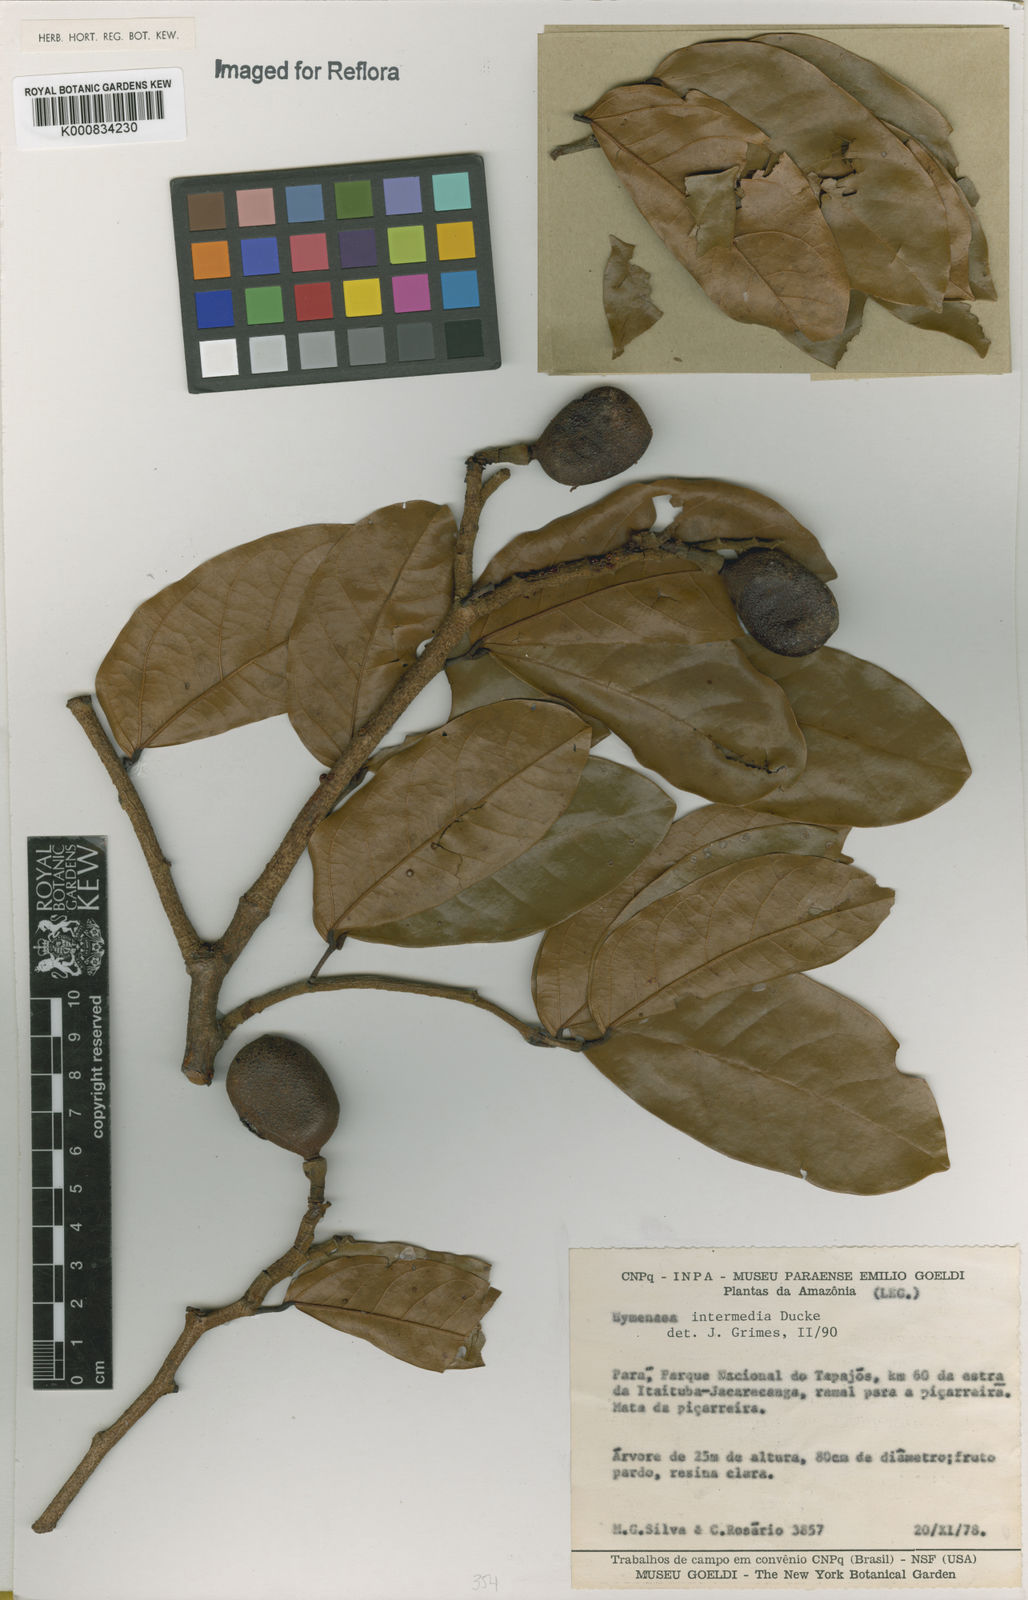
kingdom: Plantae
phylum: Tracheophyta
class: Magnoliopsida
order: Fabales
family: Fabaceae
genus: Hymenaea
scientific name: Hymenaea intermedia
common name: South american copal
